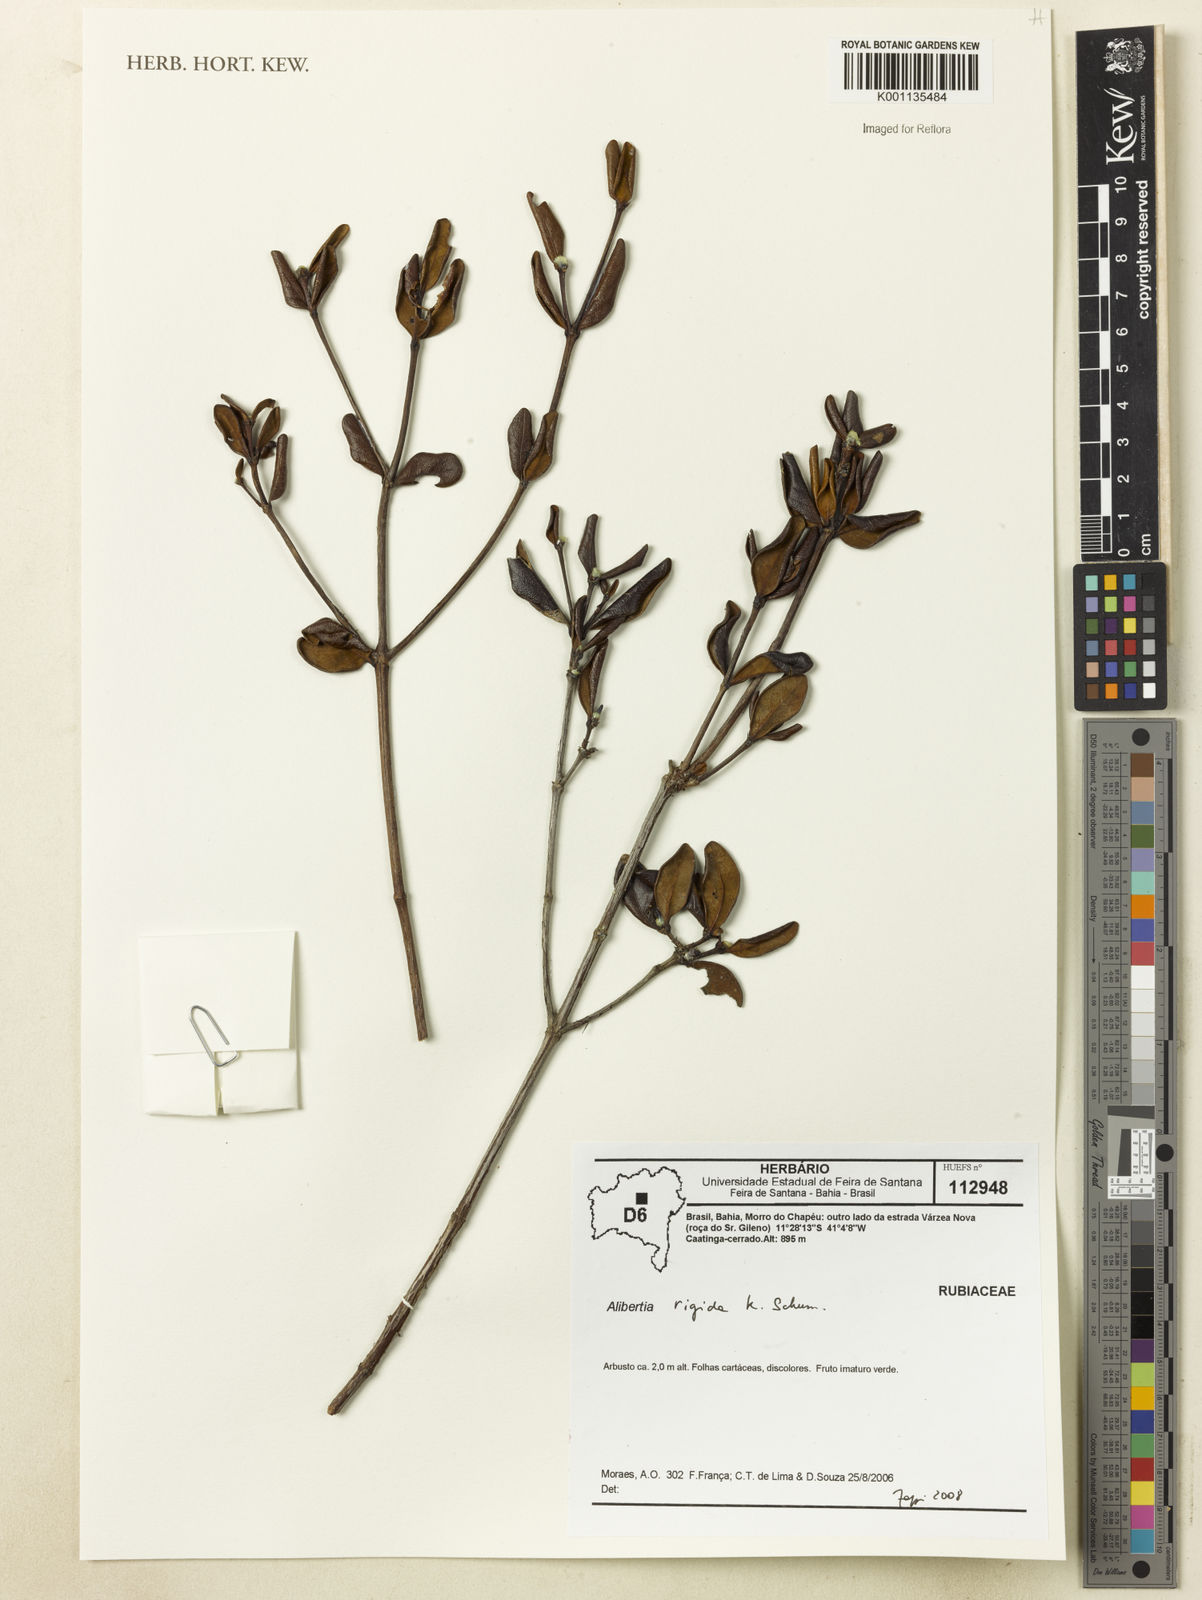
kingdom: Plantae
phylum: Tracheophyta
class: Magnoliopsida
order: Gentianales
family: Rubiaceae
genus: Cordiera
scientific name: Cordiera rigida
